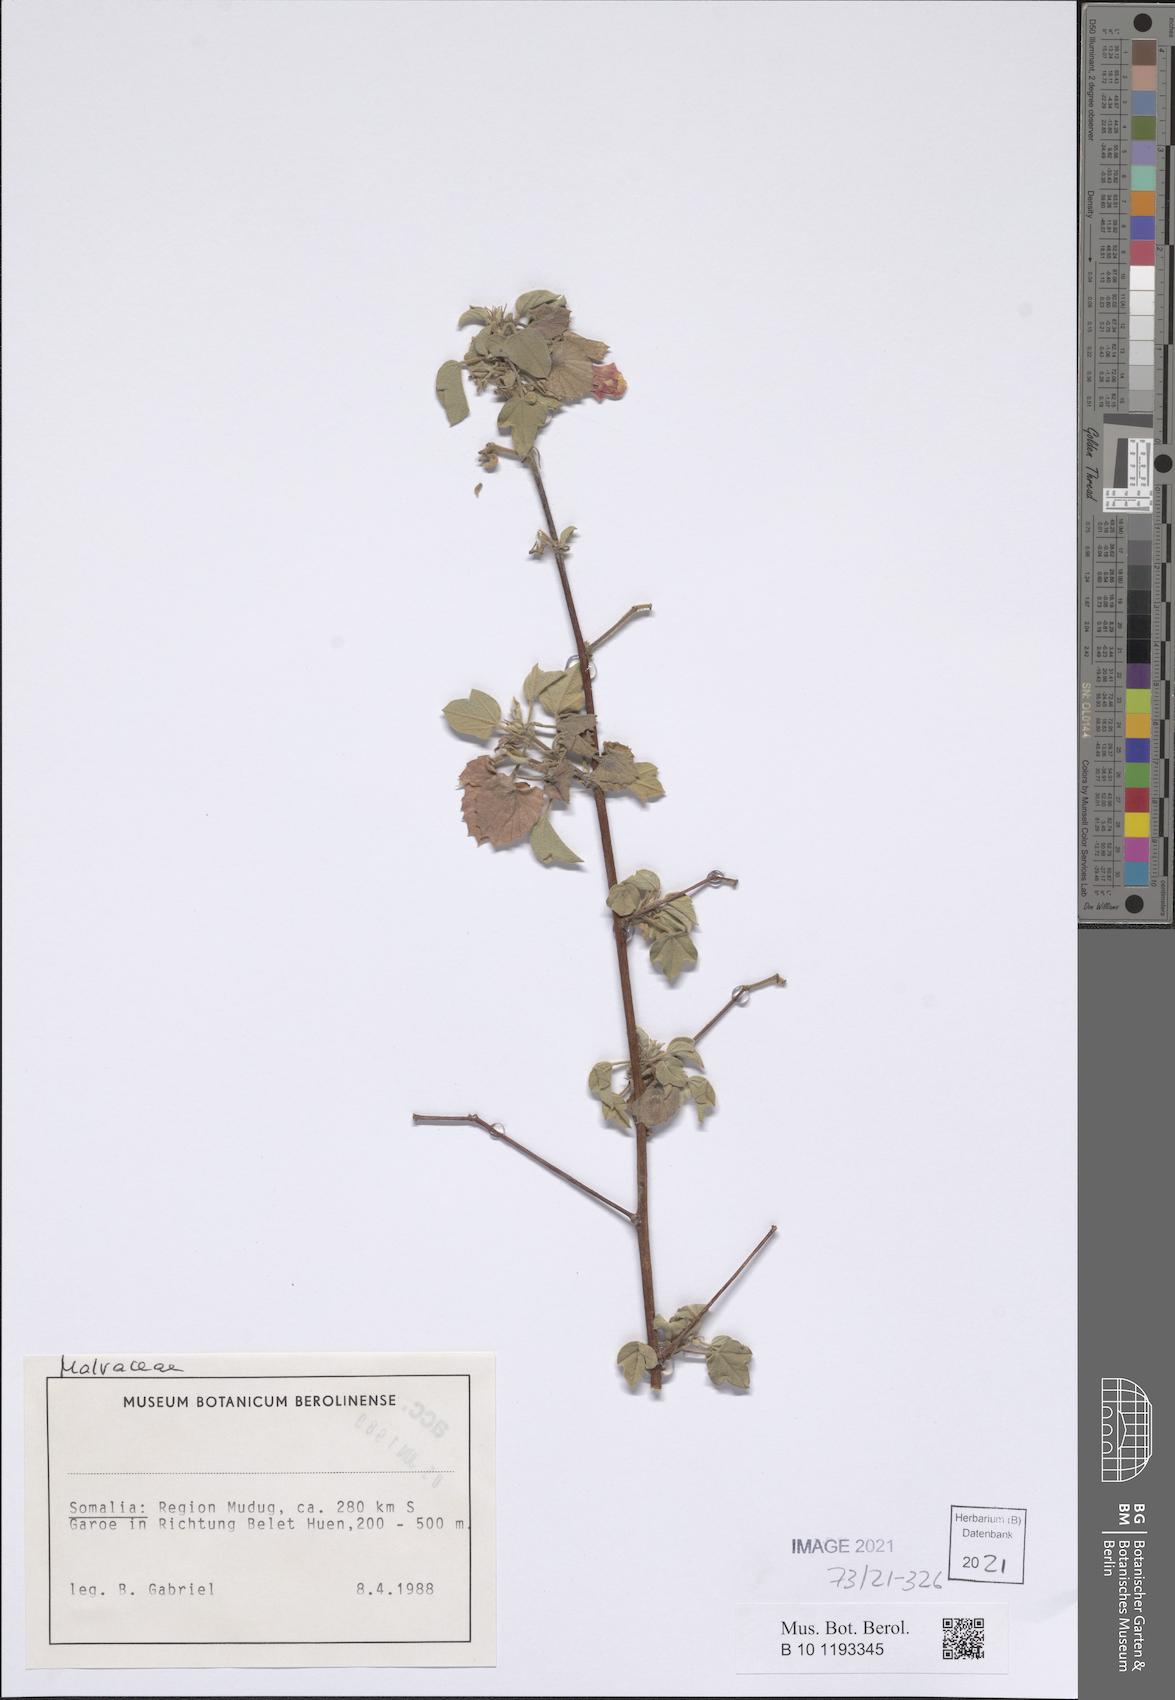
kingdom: Plantae
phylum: Tracheophyta
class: Magnoliopsida
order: Malvales
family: Malvaceae
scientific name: Malvaceae
